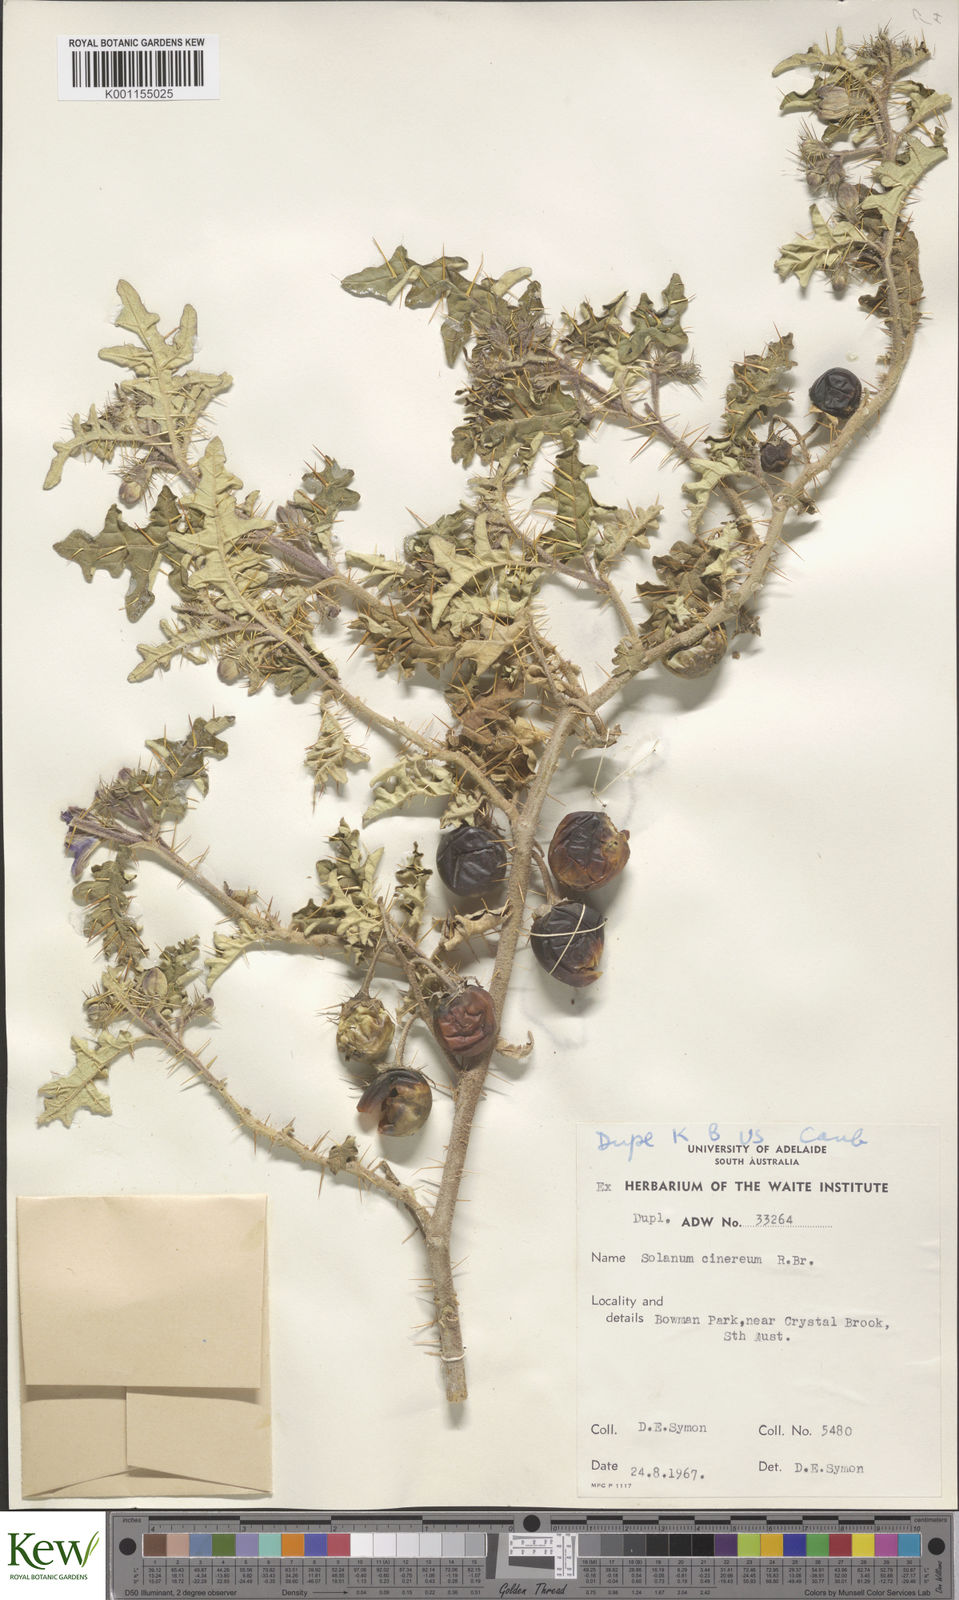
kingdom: Plantae
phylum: Tracheophyta
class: Magnoliopsida
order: Solanales
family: Solanaceae
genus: Solanum
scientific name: Solanum cinereum
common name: Narrawa-bur
